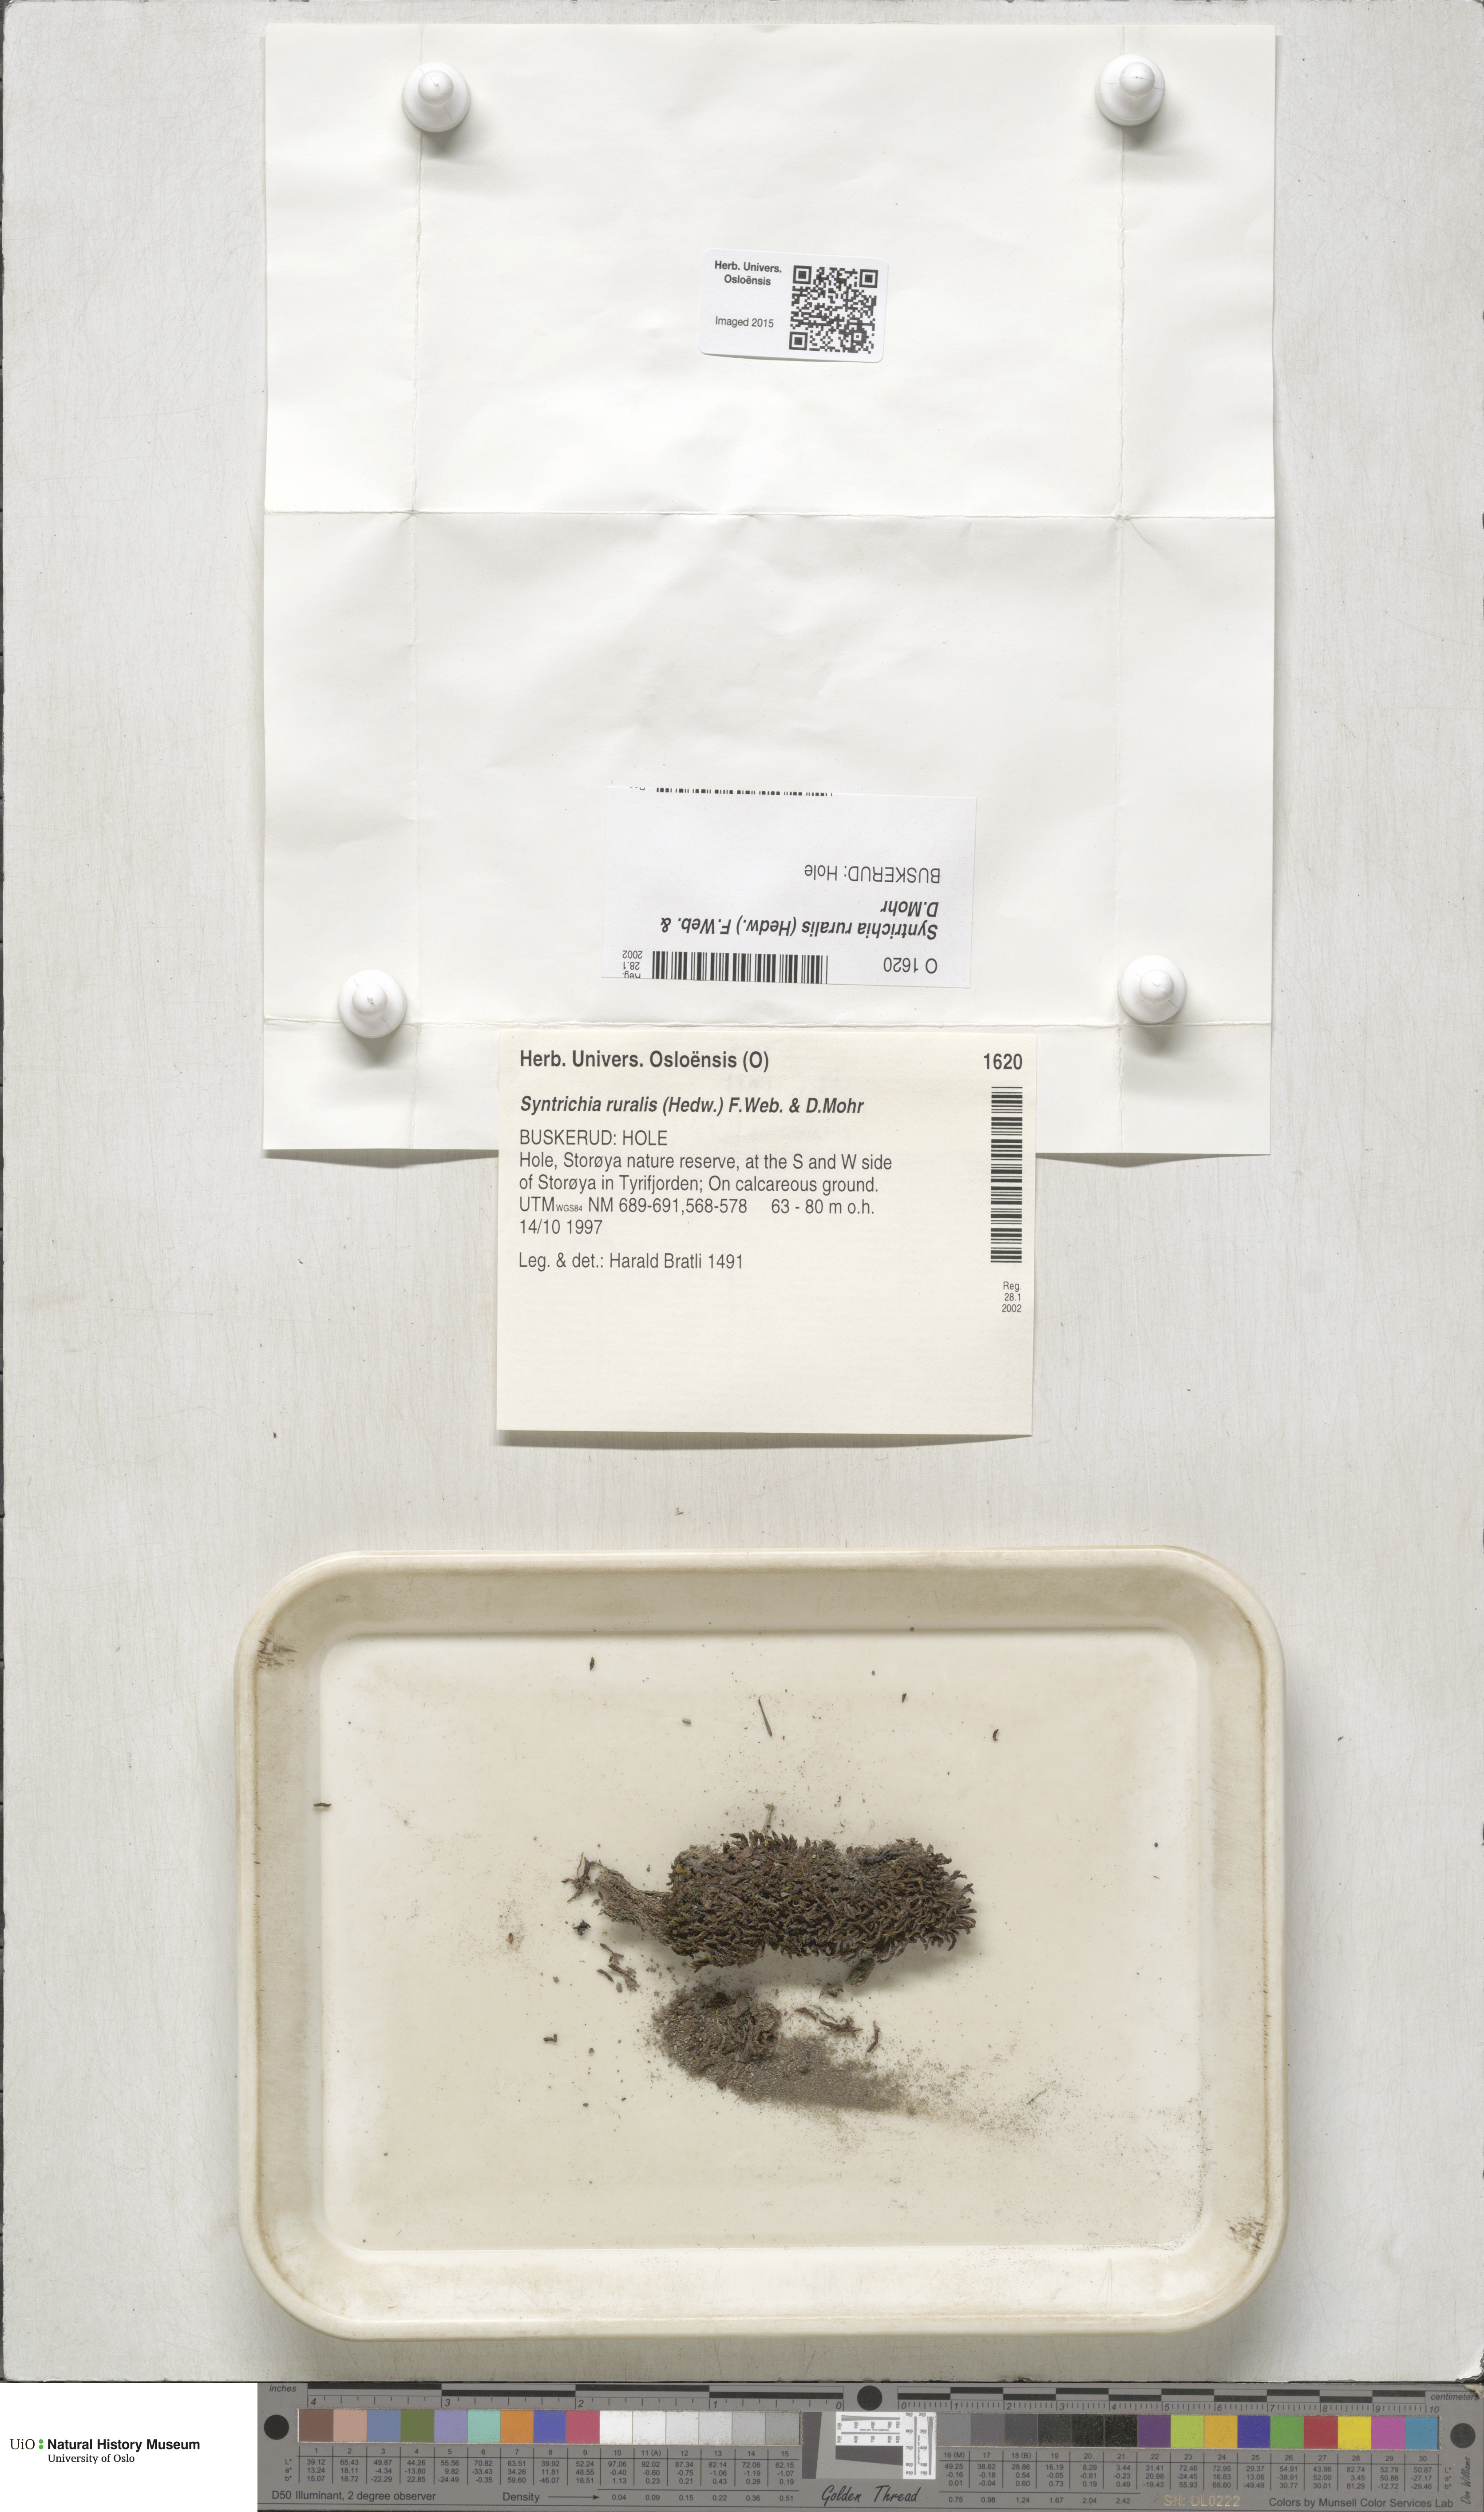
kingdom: Plantae
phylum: Bryophyta
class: Bryopsida
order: Pottiales
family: Pottiaceae
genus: Syntrichia
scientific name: Syntrichia ruralis
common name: Sidewalk screw moss
